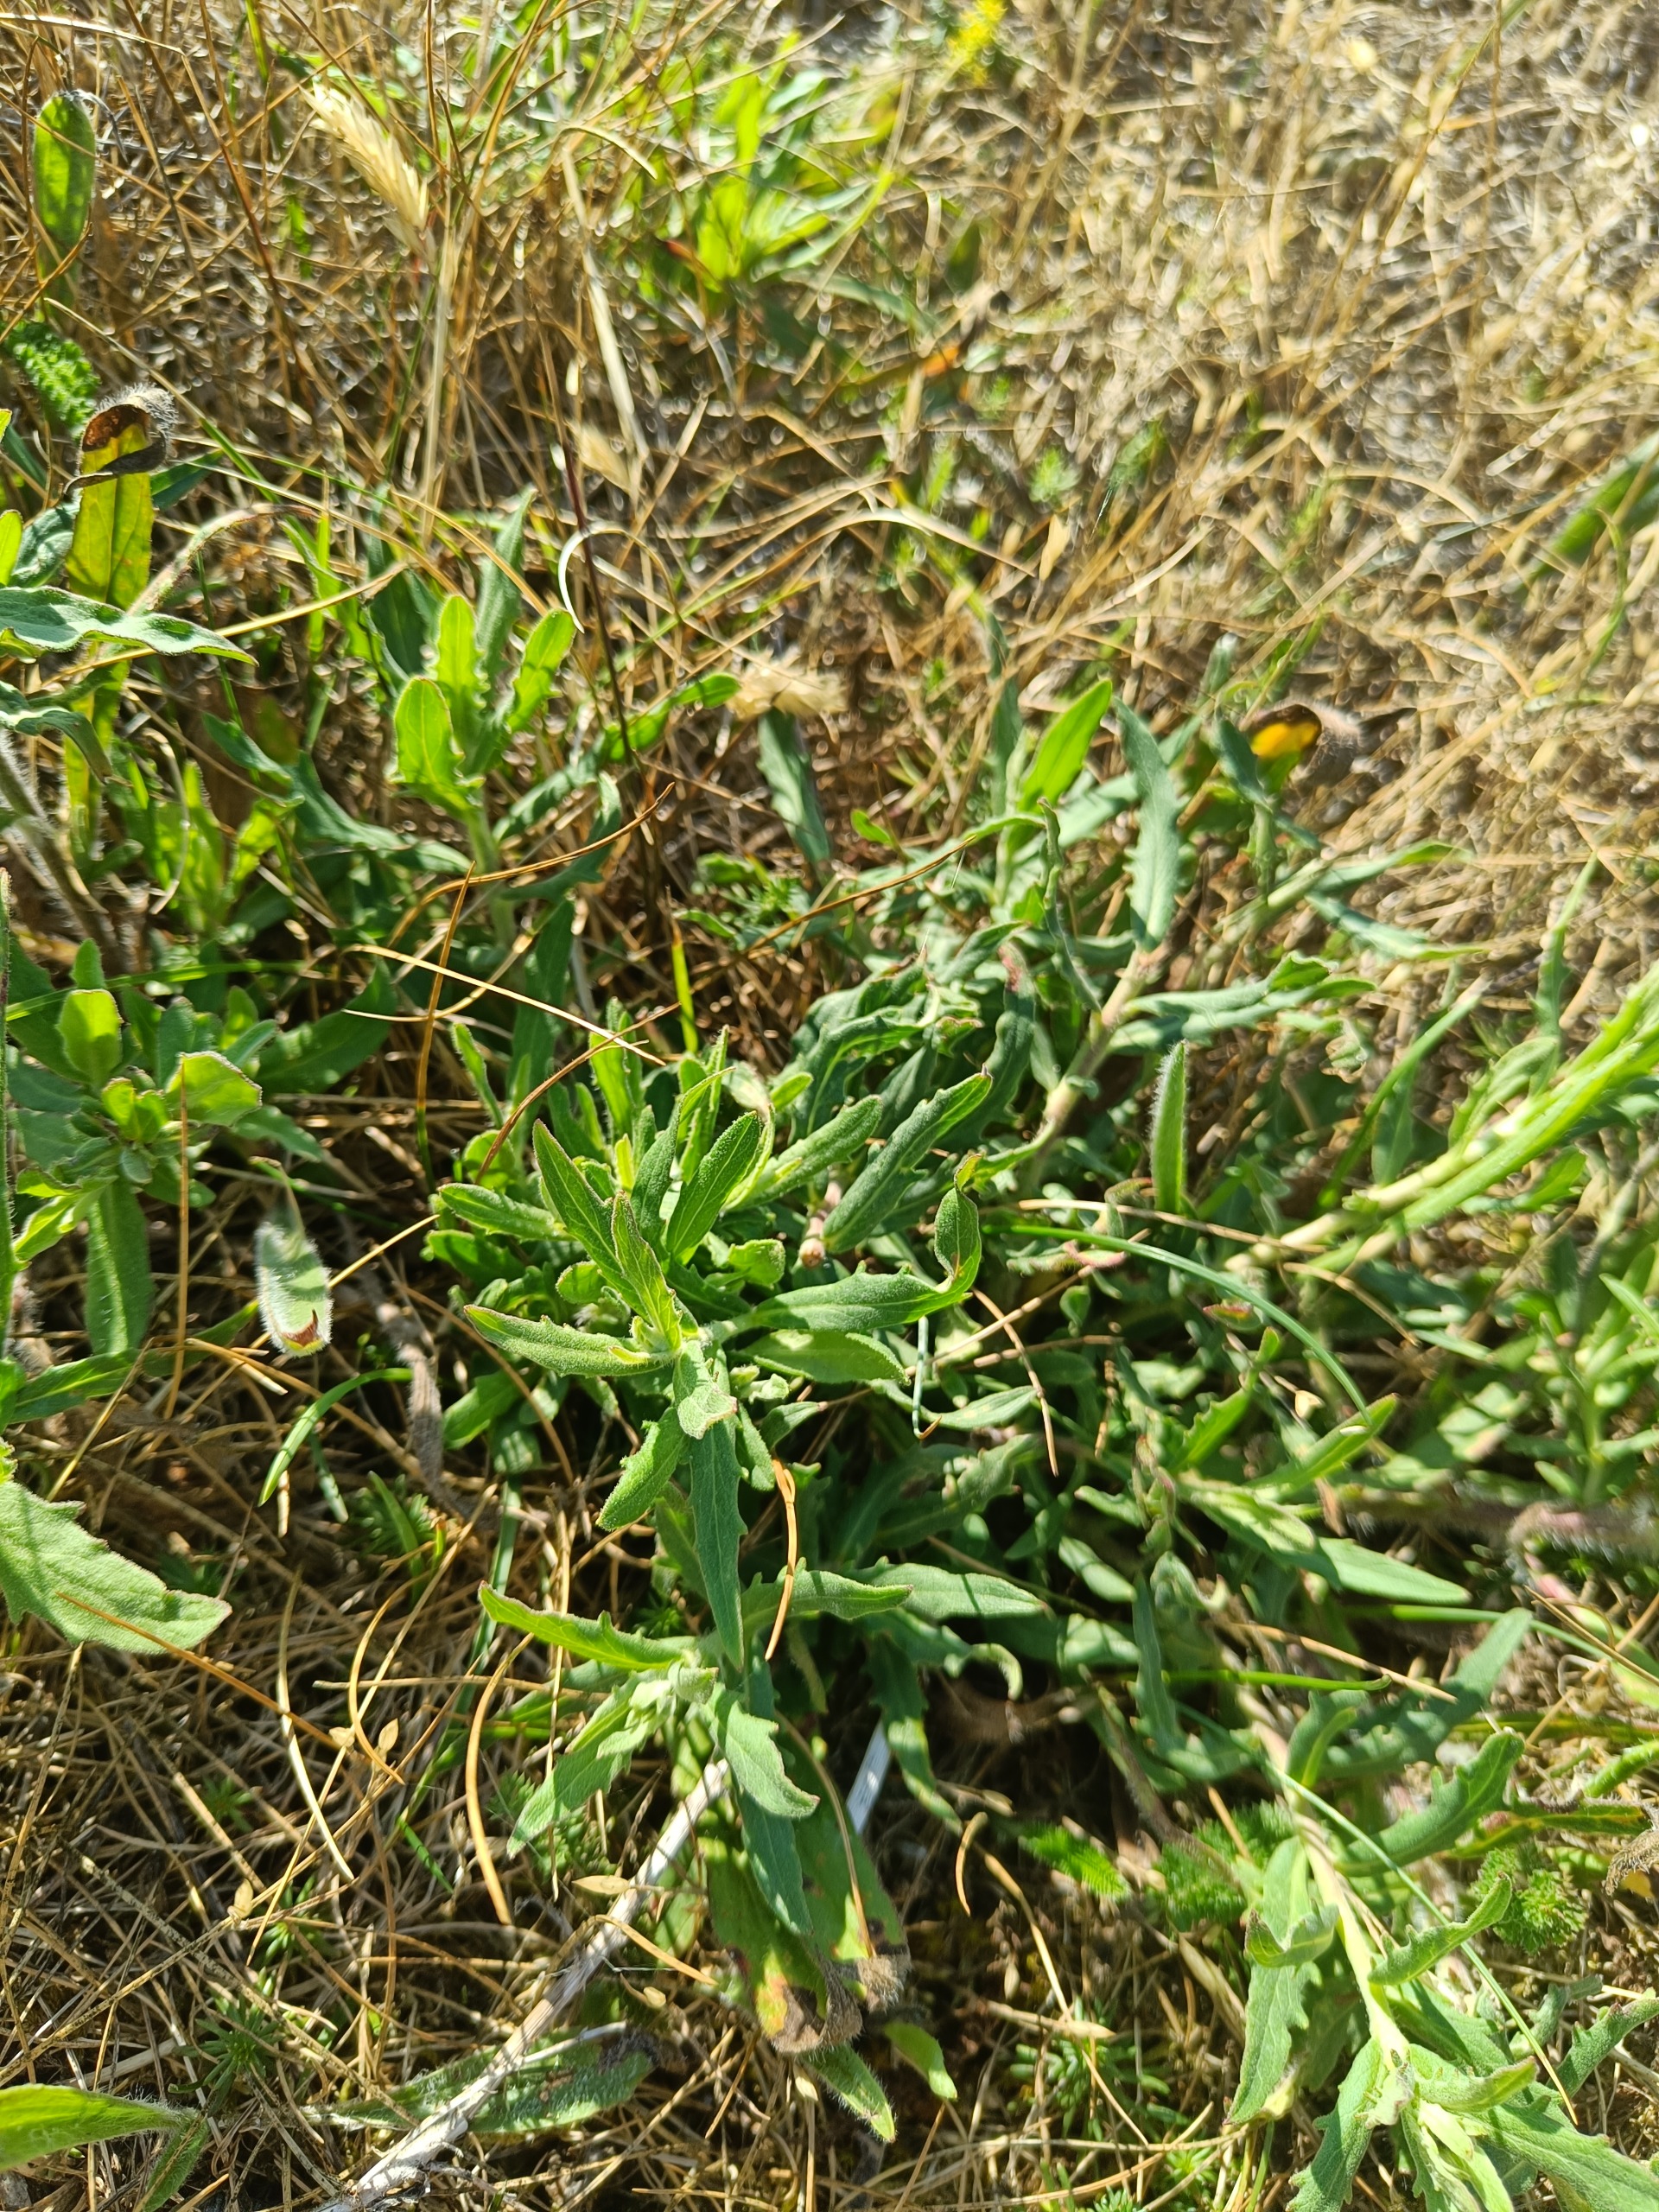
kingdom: Plantae
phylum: Tracheophyta
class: Magnoliopsida
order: Asterales
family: Asteraceae
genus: Hieracium
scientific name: Hieracium umbellatum
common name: Smalbladet høgeurt
